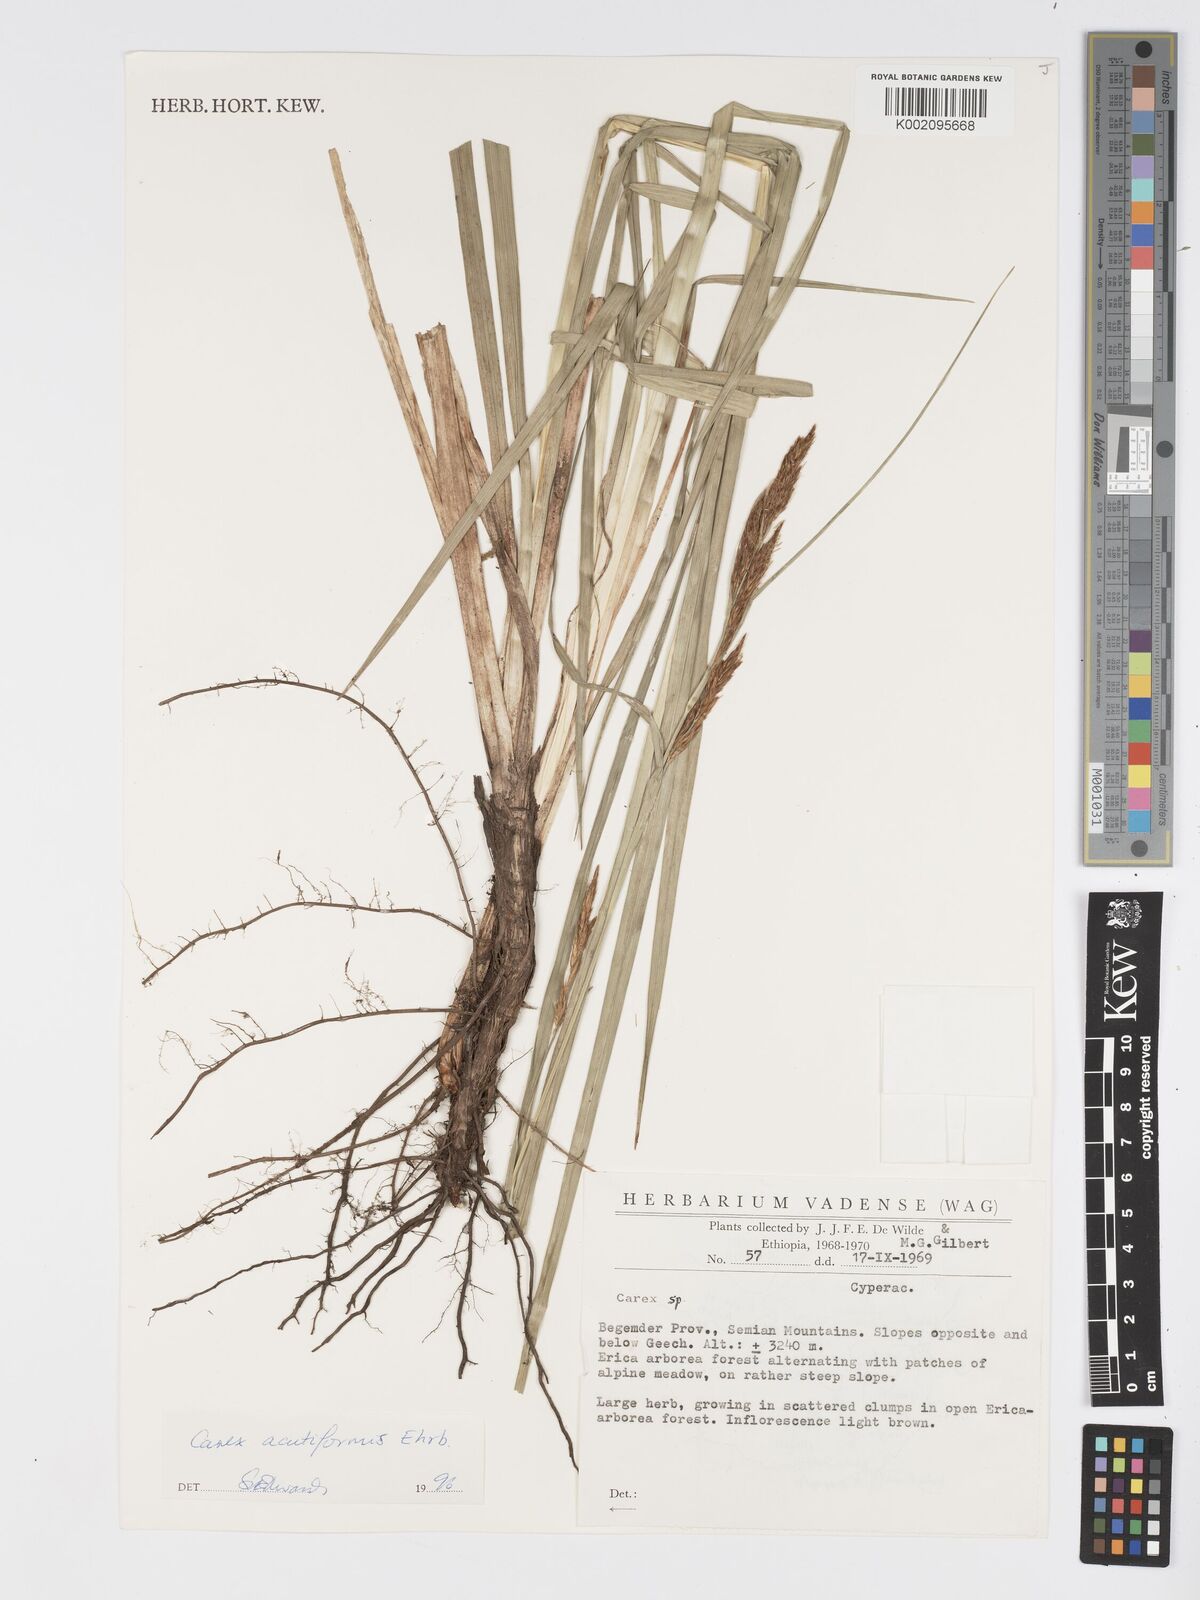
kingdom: Plantae
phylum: Tracheophyta
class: Liliopsida
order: Poales
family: Cyperaceae
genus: Carex
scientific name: Carex acutiformis
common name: Lesser pond-sedge
